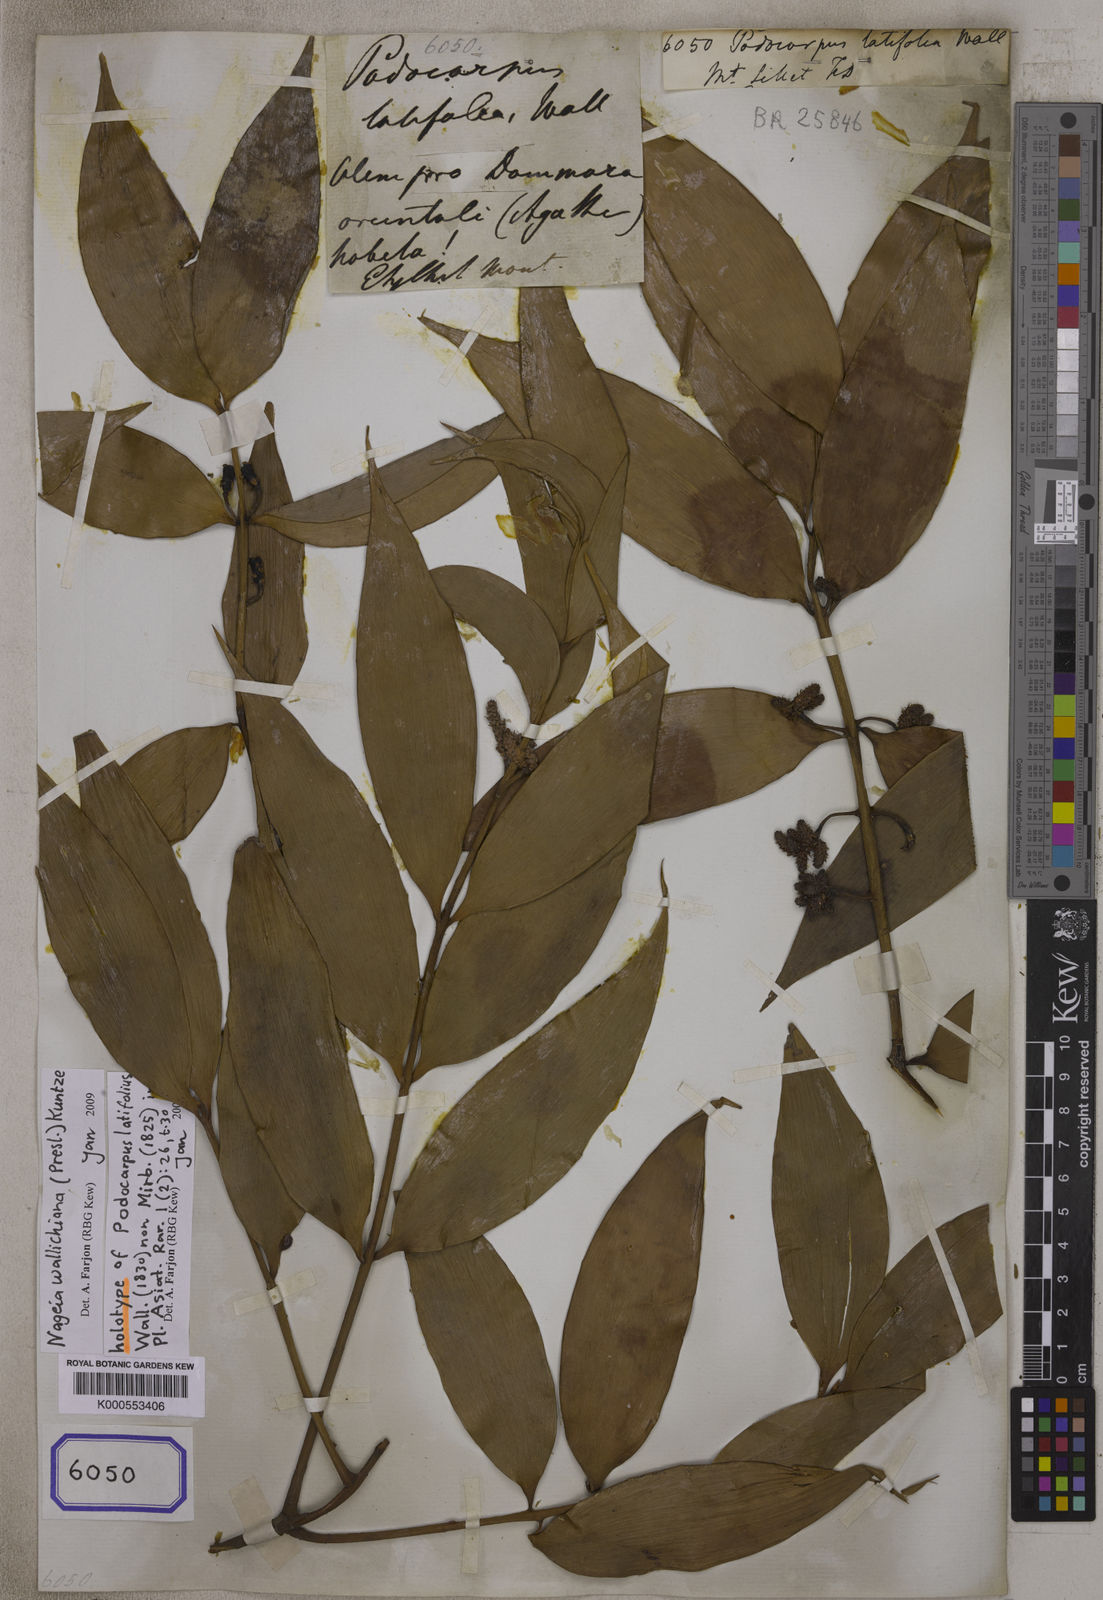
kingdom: Plantae
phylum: Tracheophyta
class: Pinopsida
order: Pinales
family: Podocarpaceae
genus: Nageia
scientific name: Nageia wallichiana
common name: Brown's-pine
